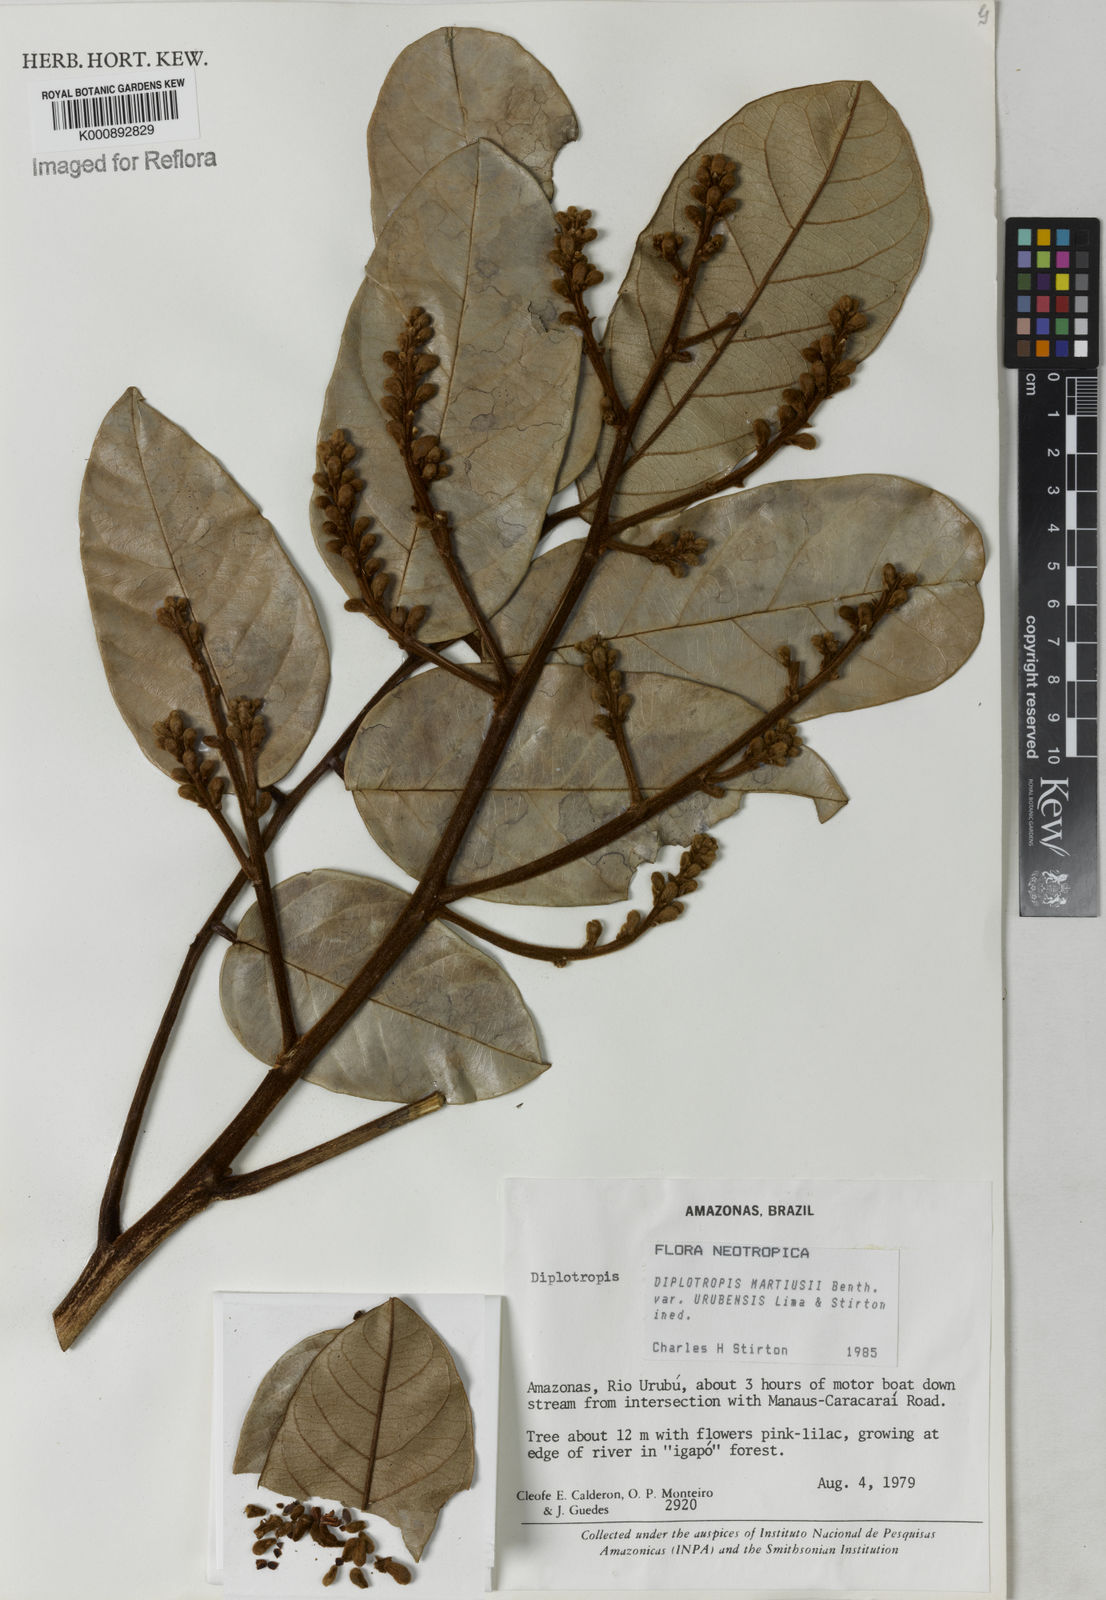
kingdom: Plantae
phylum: Tracheophyta
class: Magnoliopsida
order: Fabales
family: Fabaceae
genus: Diplotropis
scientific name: Diplotropis
